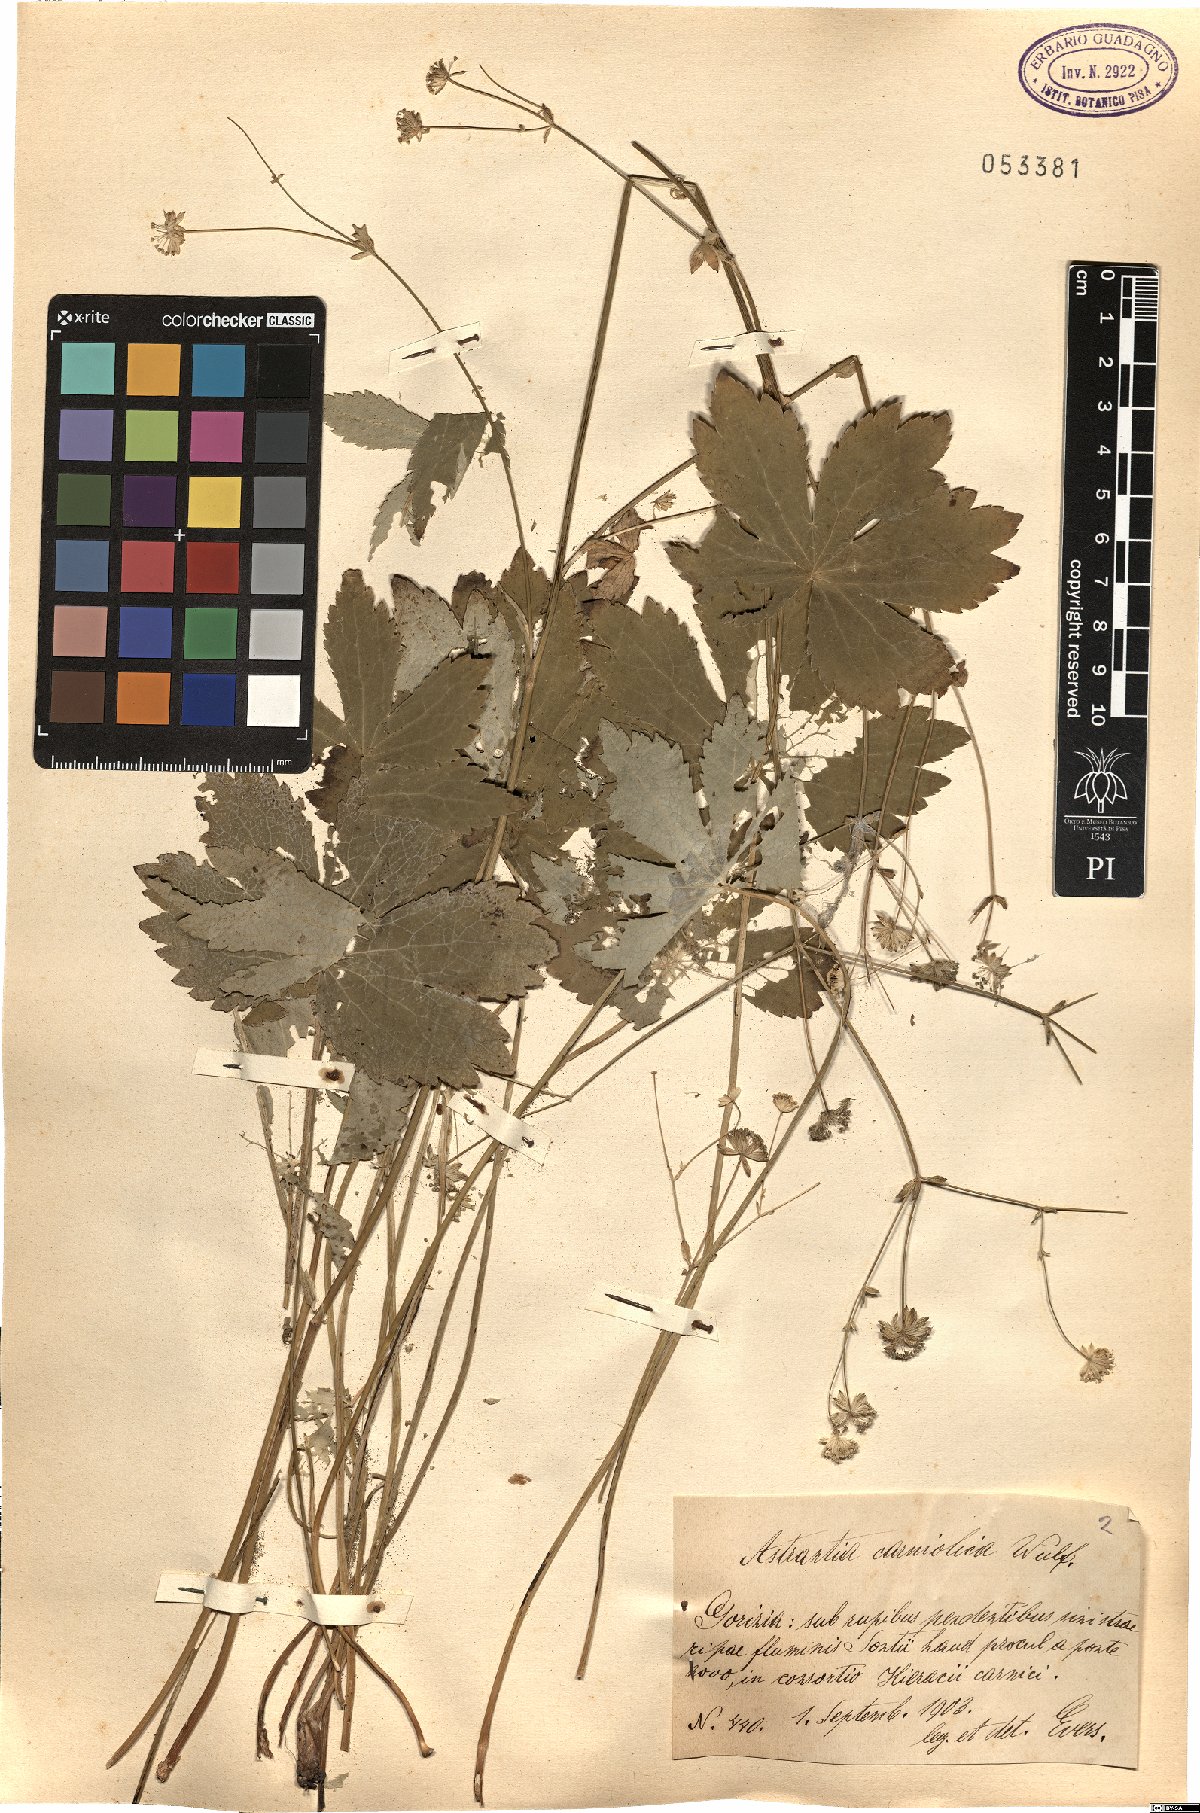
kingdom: Plantae
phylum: Tracheophyta
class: Magnoliopsida
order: Apiales
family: Apiaceae
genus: Astrantia
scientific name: Astrantia carniolica
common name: Carnic masterwort
